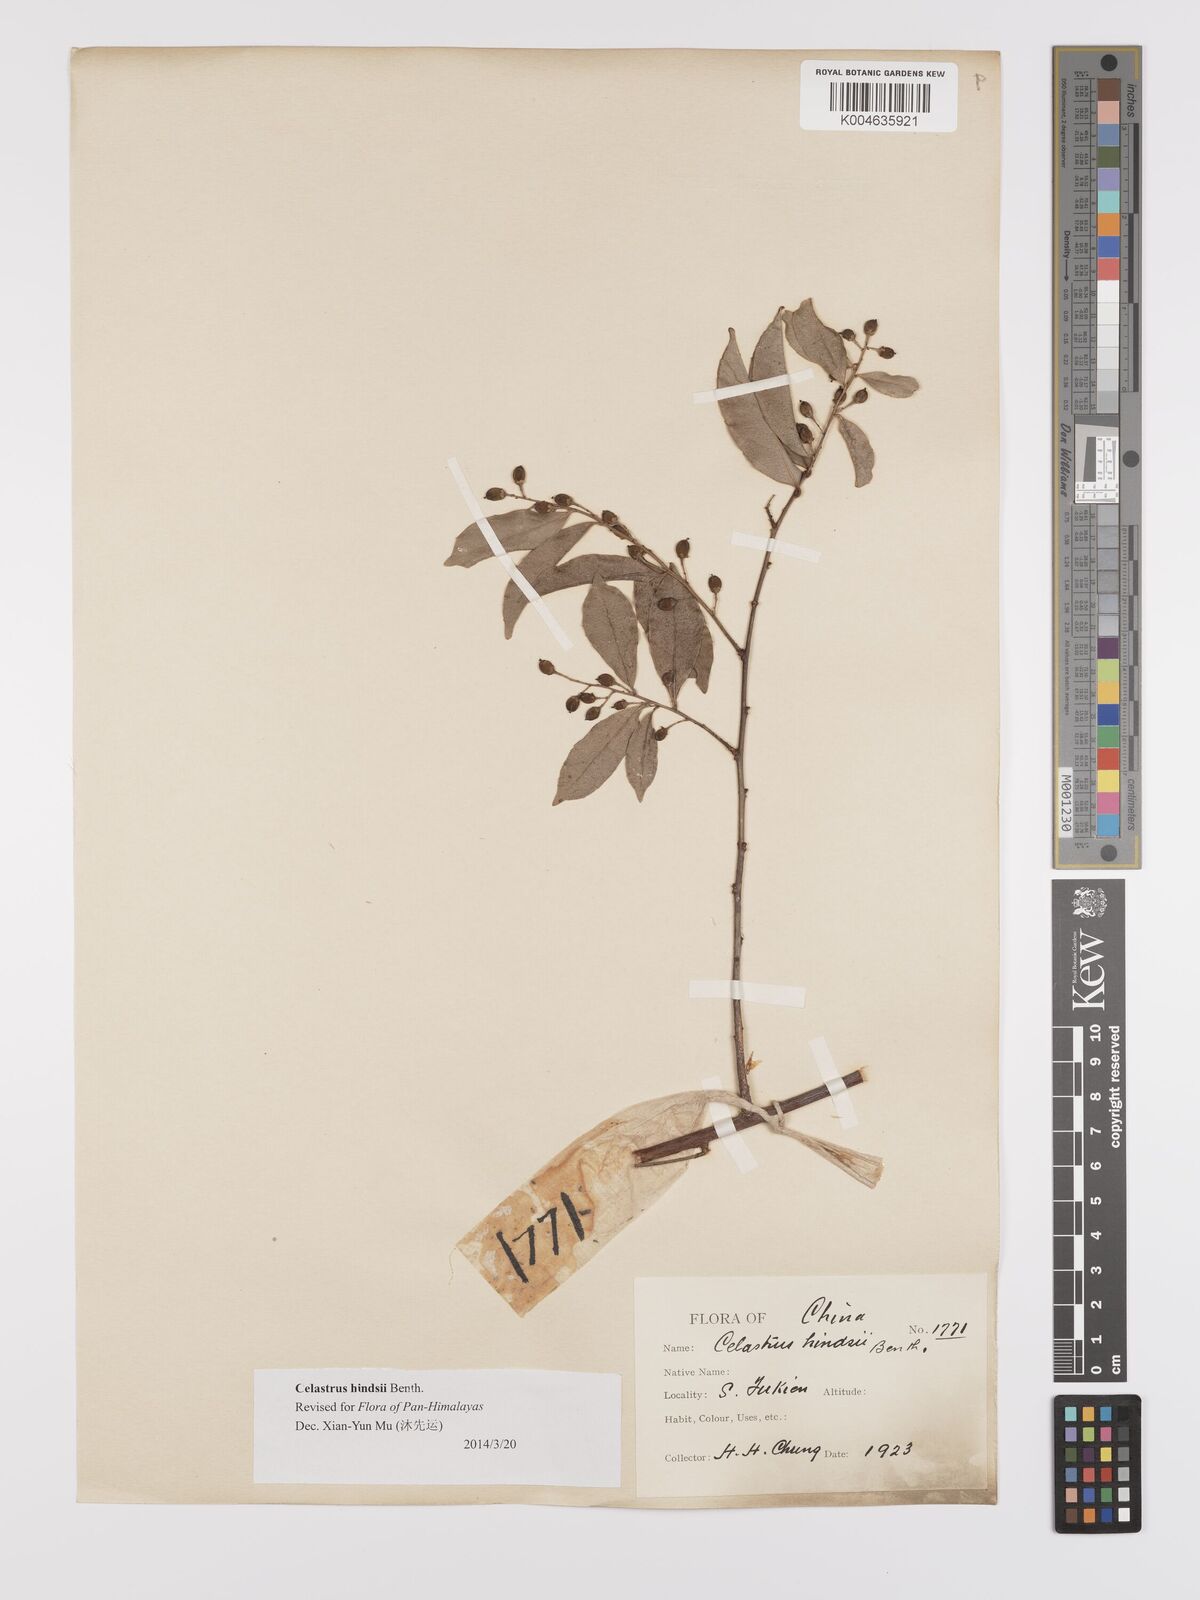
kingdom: Plantae
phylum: Tracheophyta
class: Magnoliopsida
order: Celastrales
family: Celastraceae
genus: Celastrus
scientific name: Celastrus hindsii
